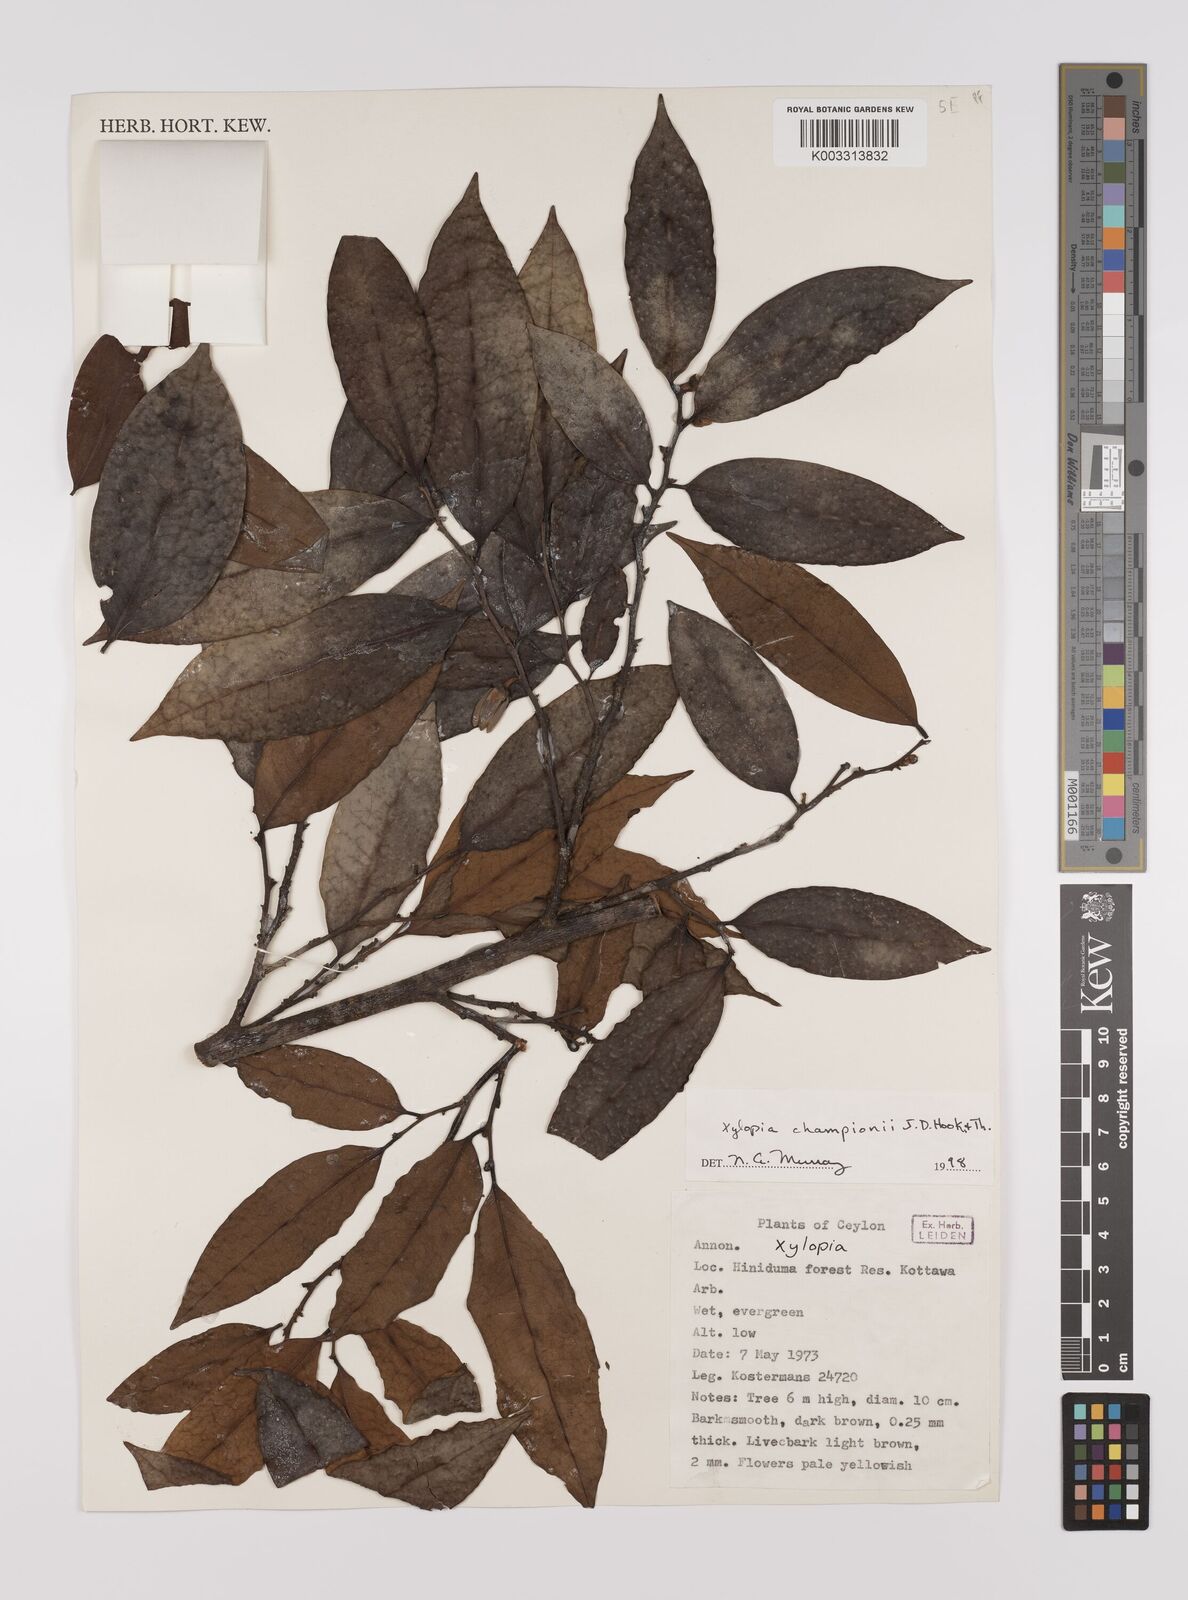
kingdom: Plantae
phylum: Tracheophyta
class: Magnoliopsida
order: Magnoliales
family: Annonaceae
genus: Xylopia
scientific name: Xylopia championii
